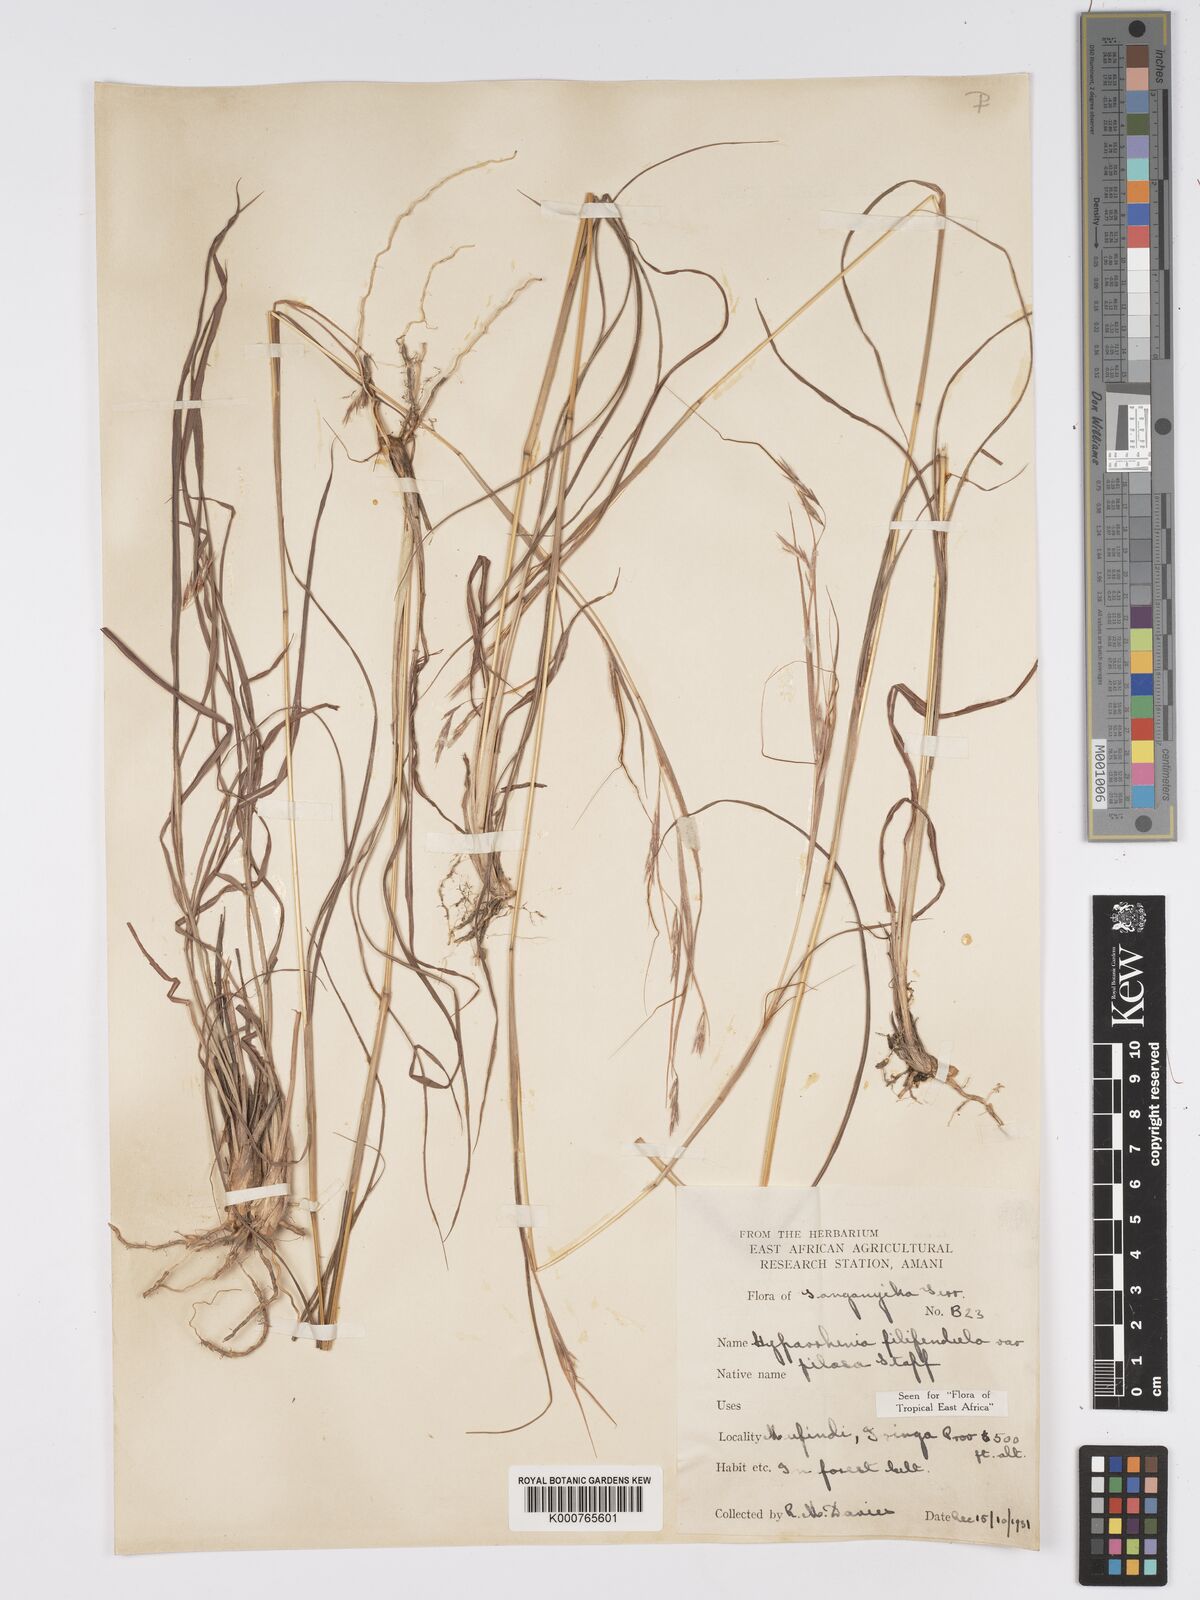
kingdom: Plantae
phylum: Tracheophyta
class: Liliopsida
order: Poales
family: Poaceae
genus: Hyparrhenia
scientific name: Hyparrhenia filipendula
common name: Tambookie grass
